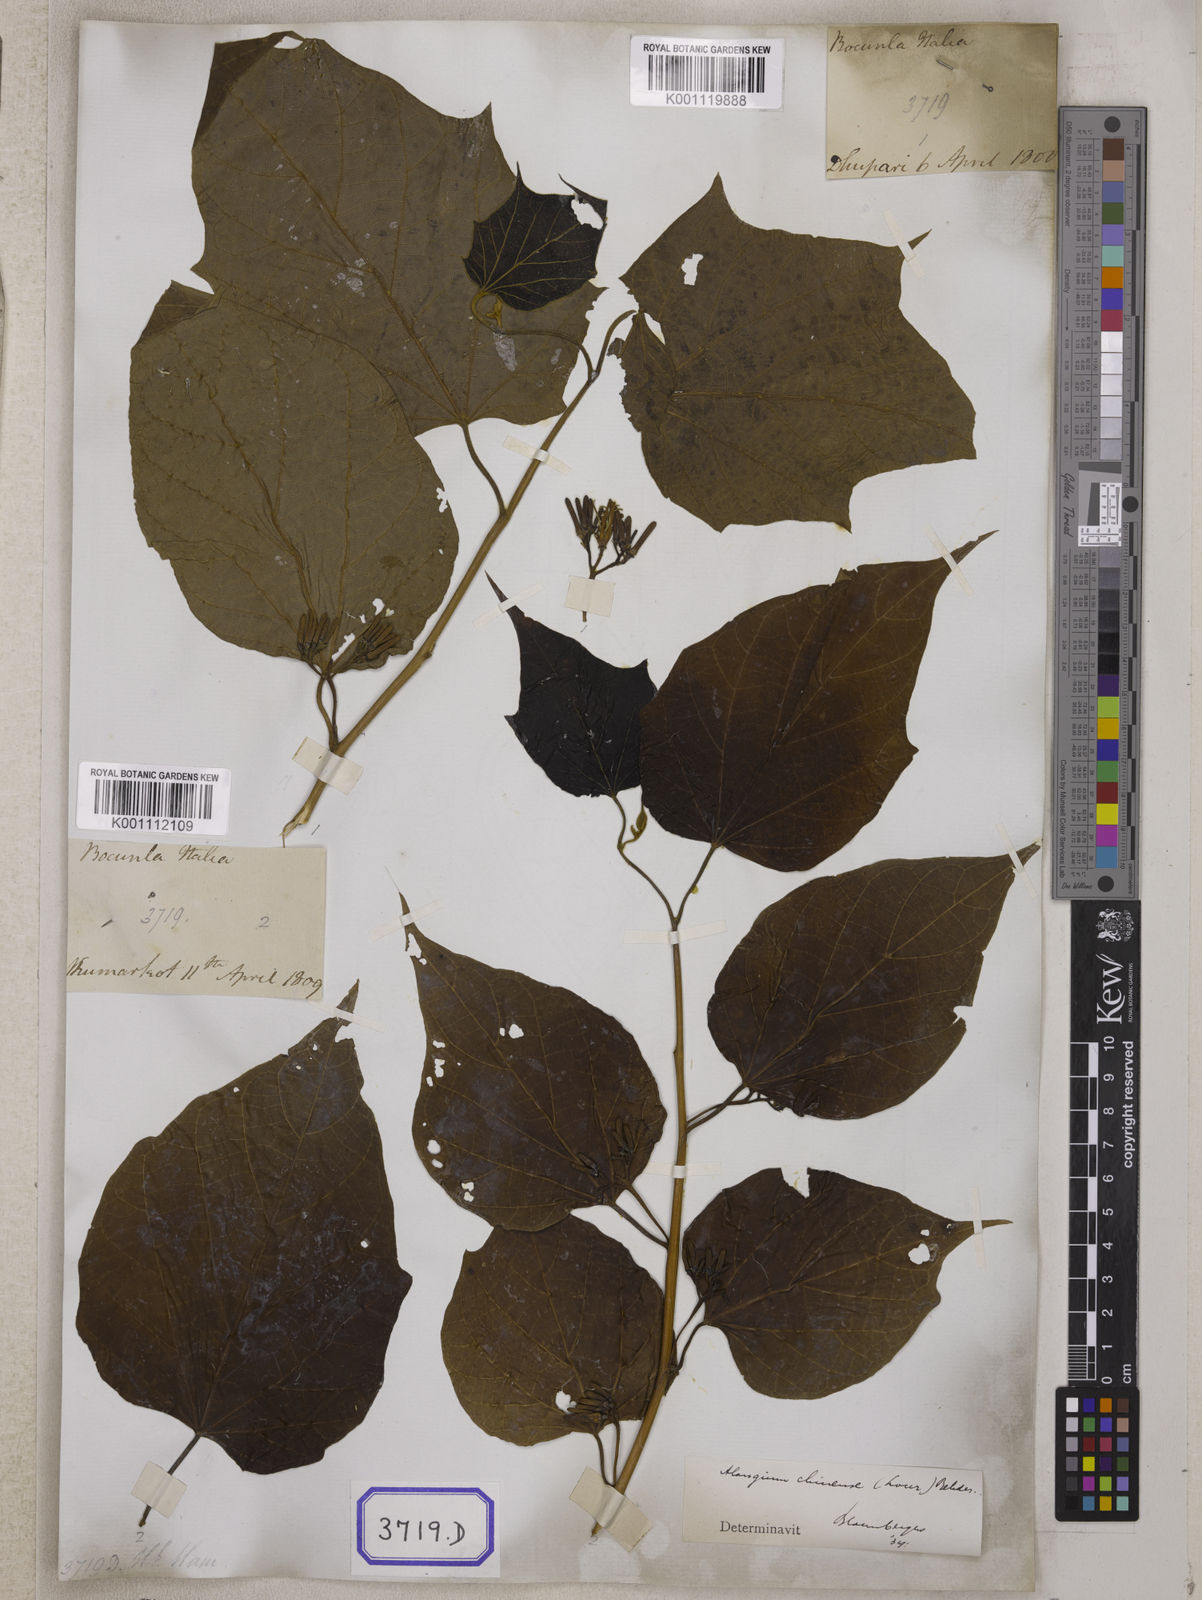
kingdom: Plantae
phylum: Tracheophyta
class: Magnoliopsida
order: Cornales
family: Cornaceae
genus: Alangium
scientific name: Alangium chinense
